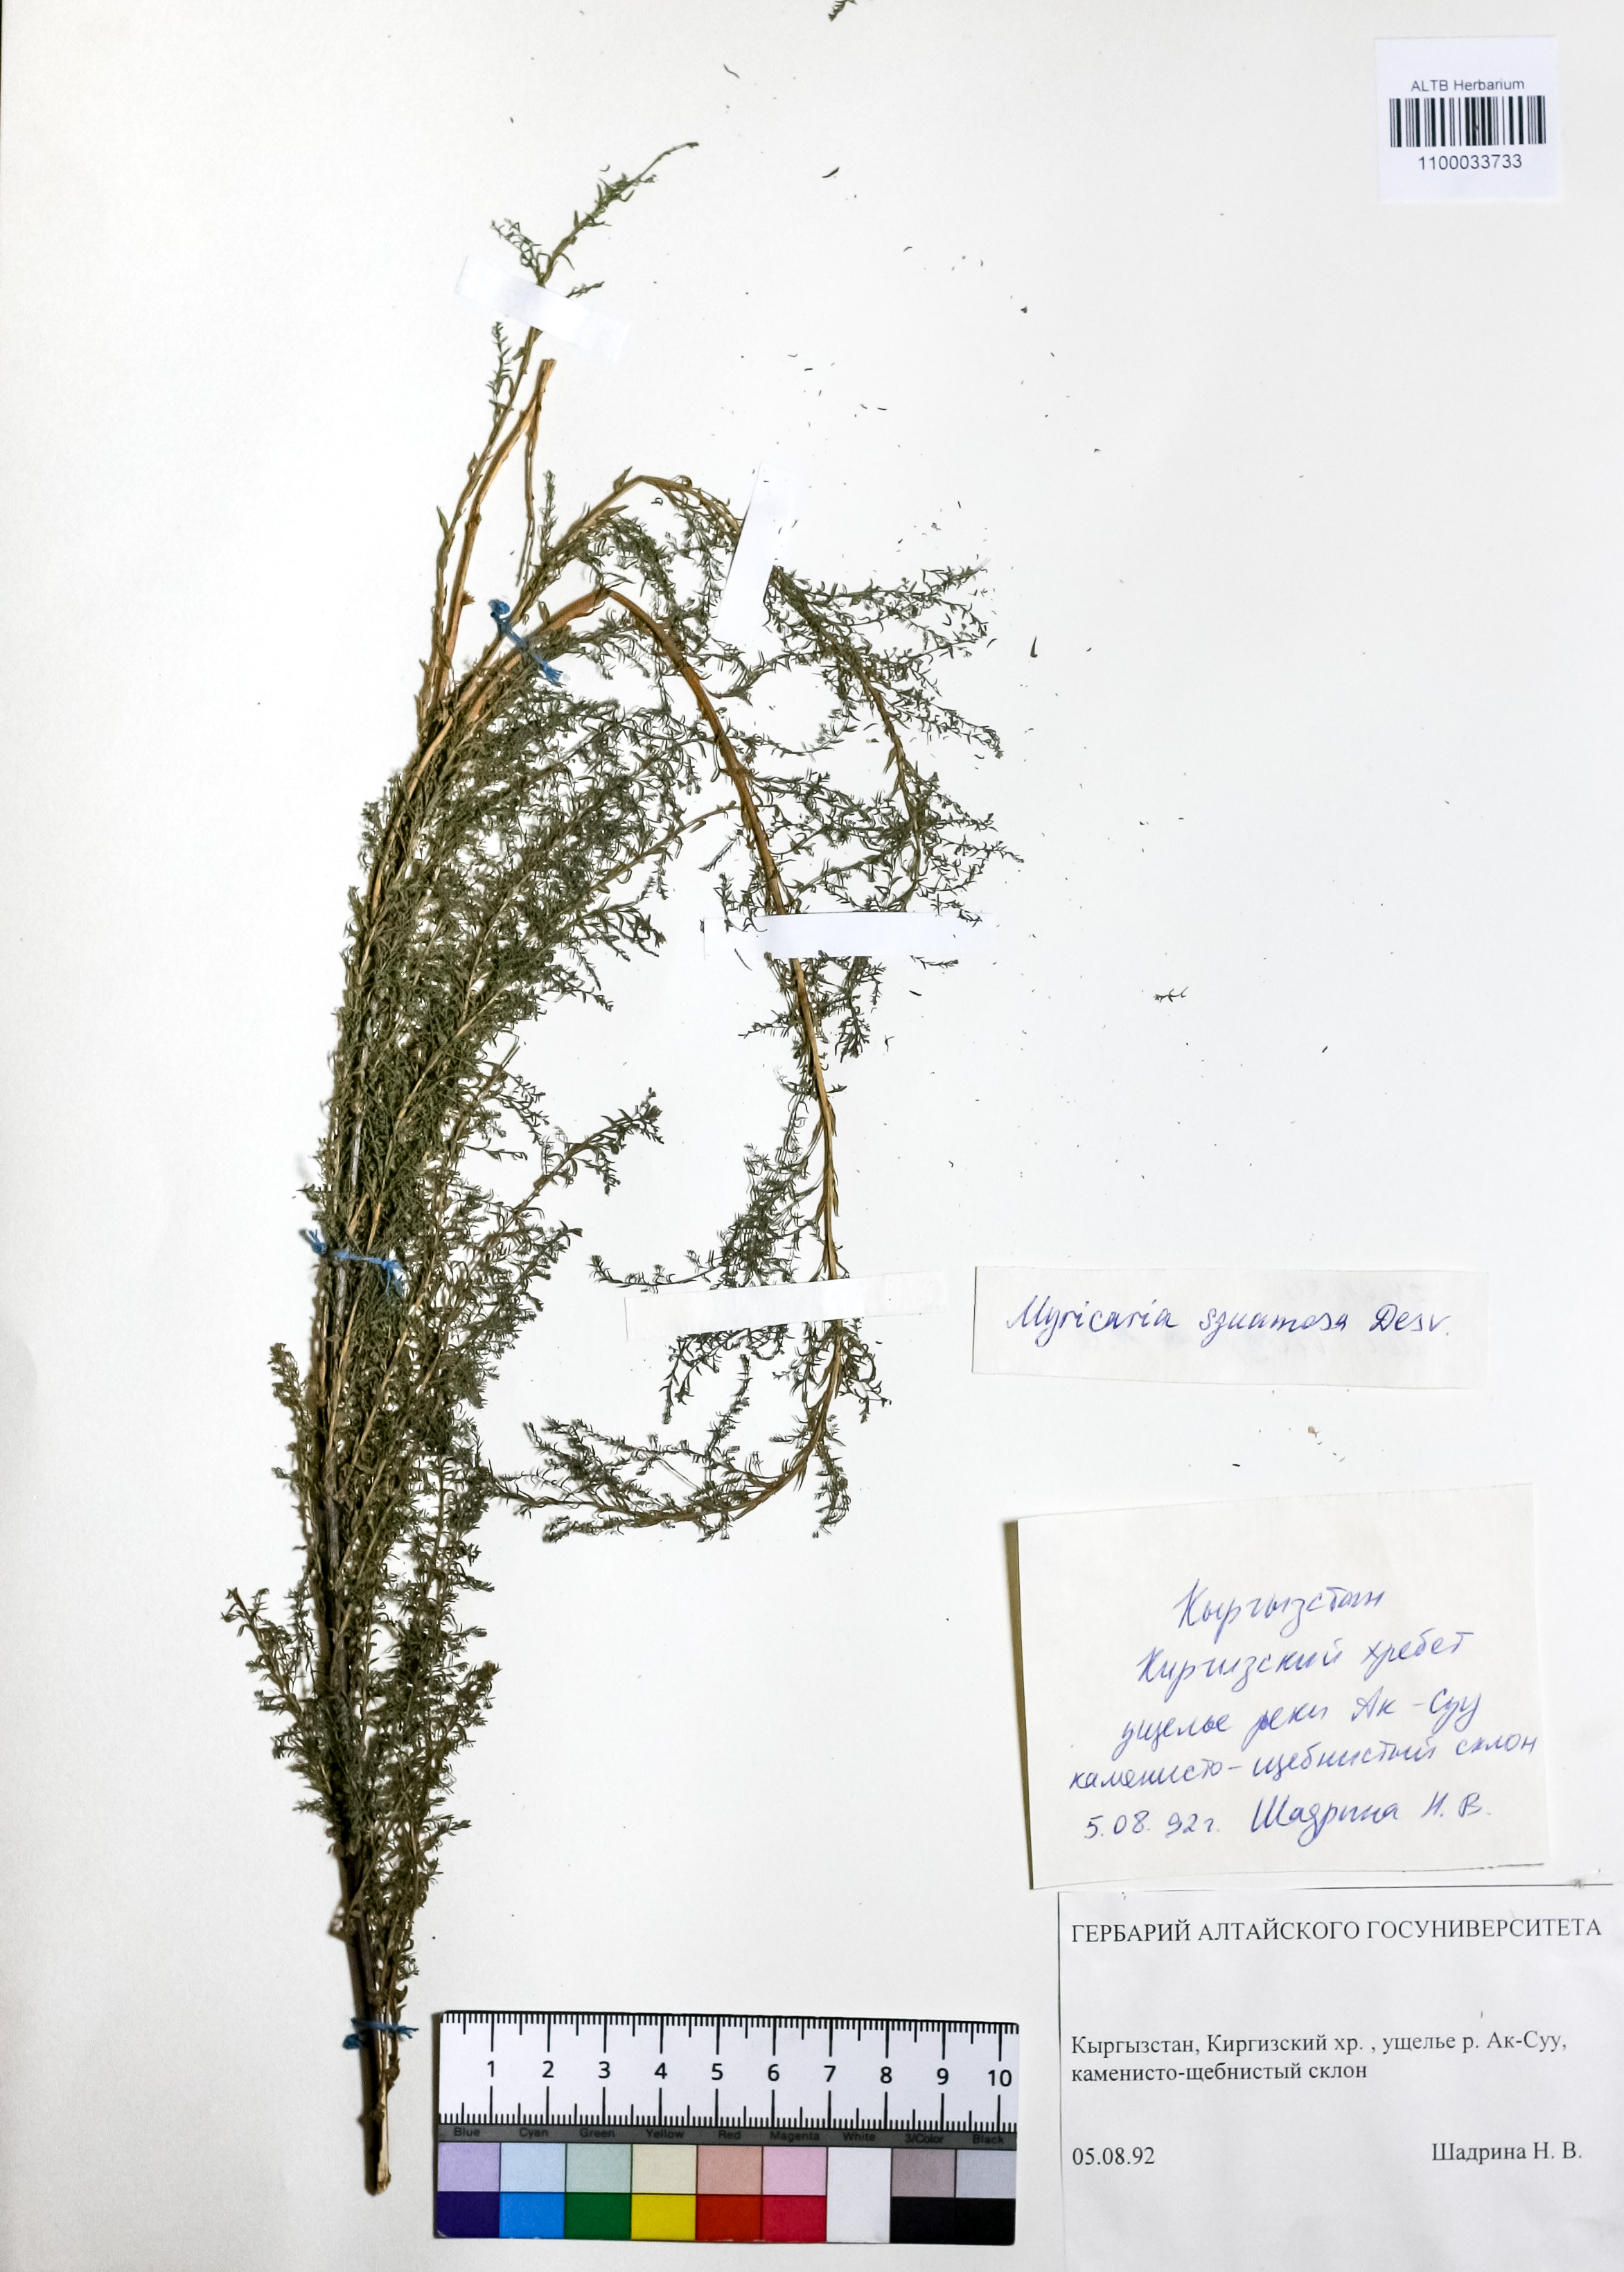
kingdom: Plantae
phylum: Tracheophyta
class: Magnoliopsida
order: Caryophyllales
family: Tamaricaceae
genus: Myricaria
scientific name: Myricaria squamosa
